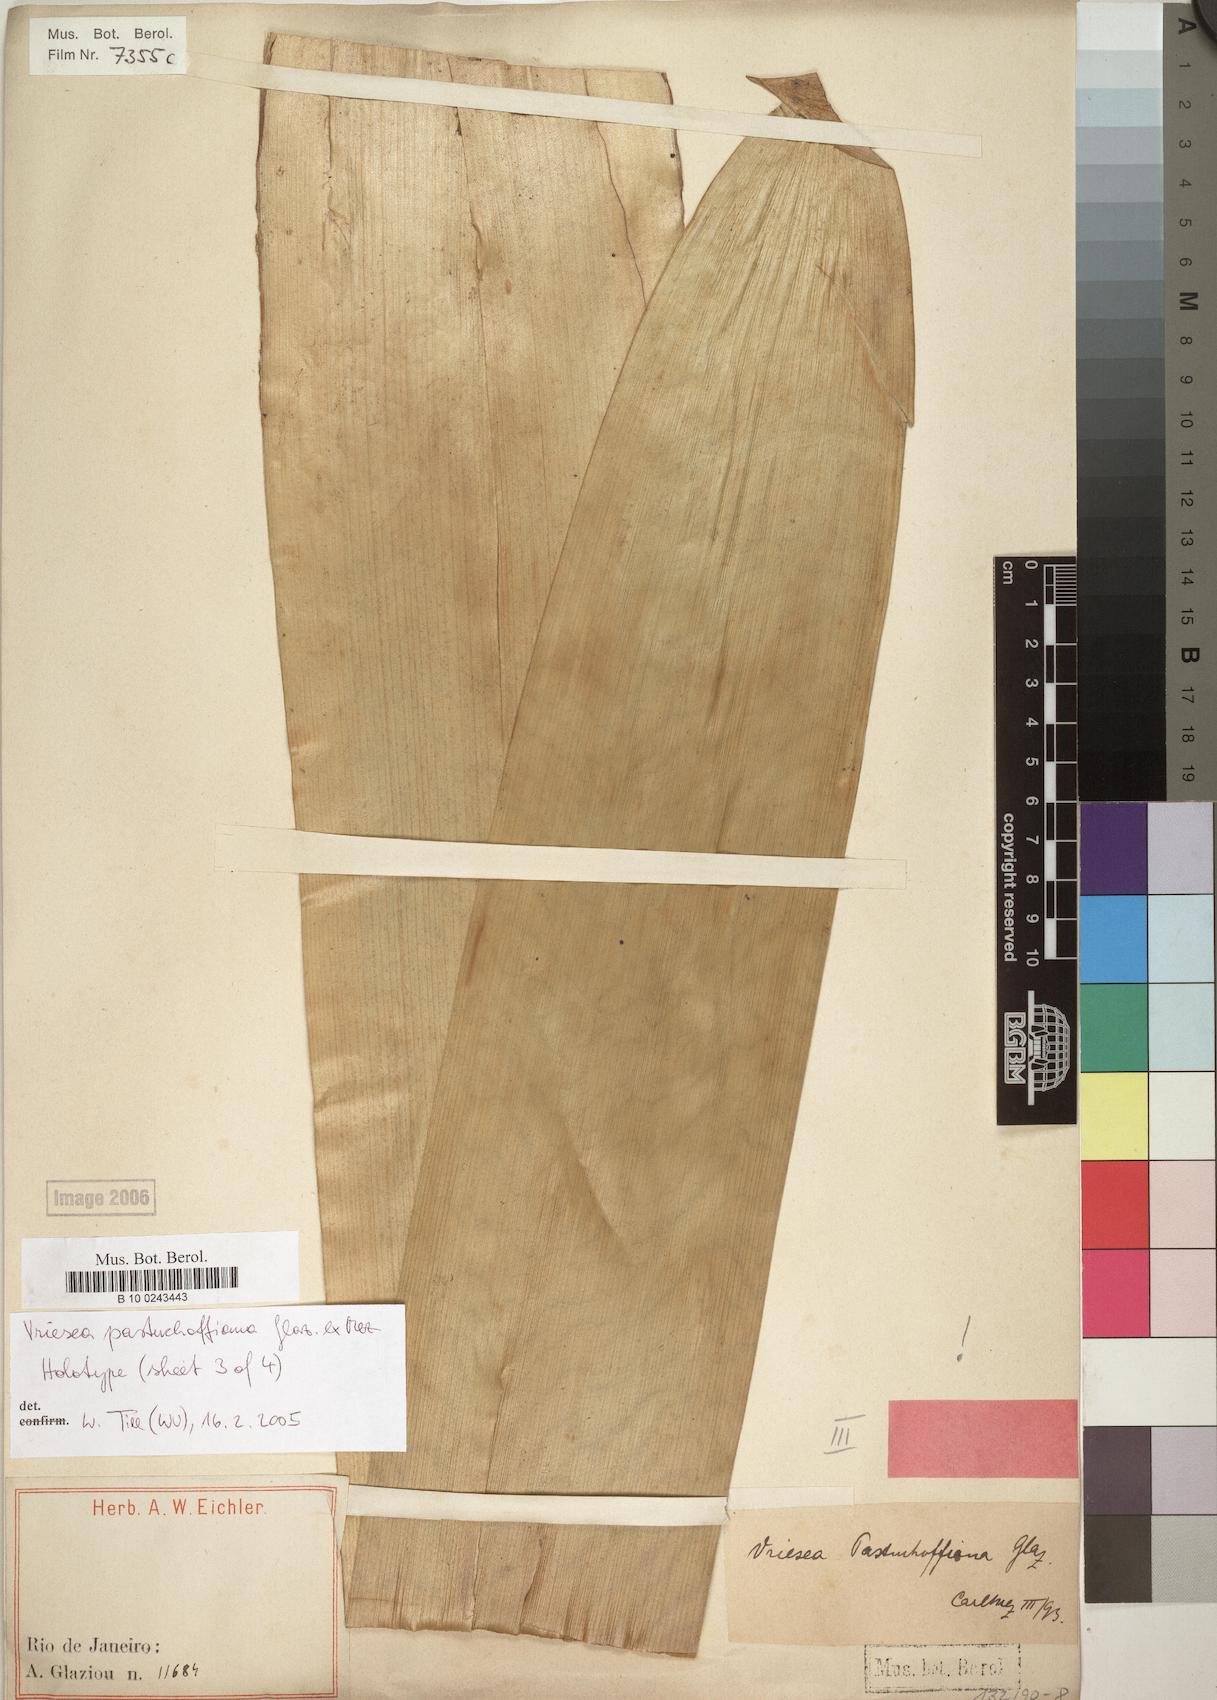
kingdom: Plantae
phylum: Tracheophyta
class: Liliopsida
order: Poales
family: Bromeliaceae
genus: Vriesea
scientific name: Vriesea pastuchoffiana
